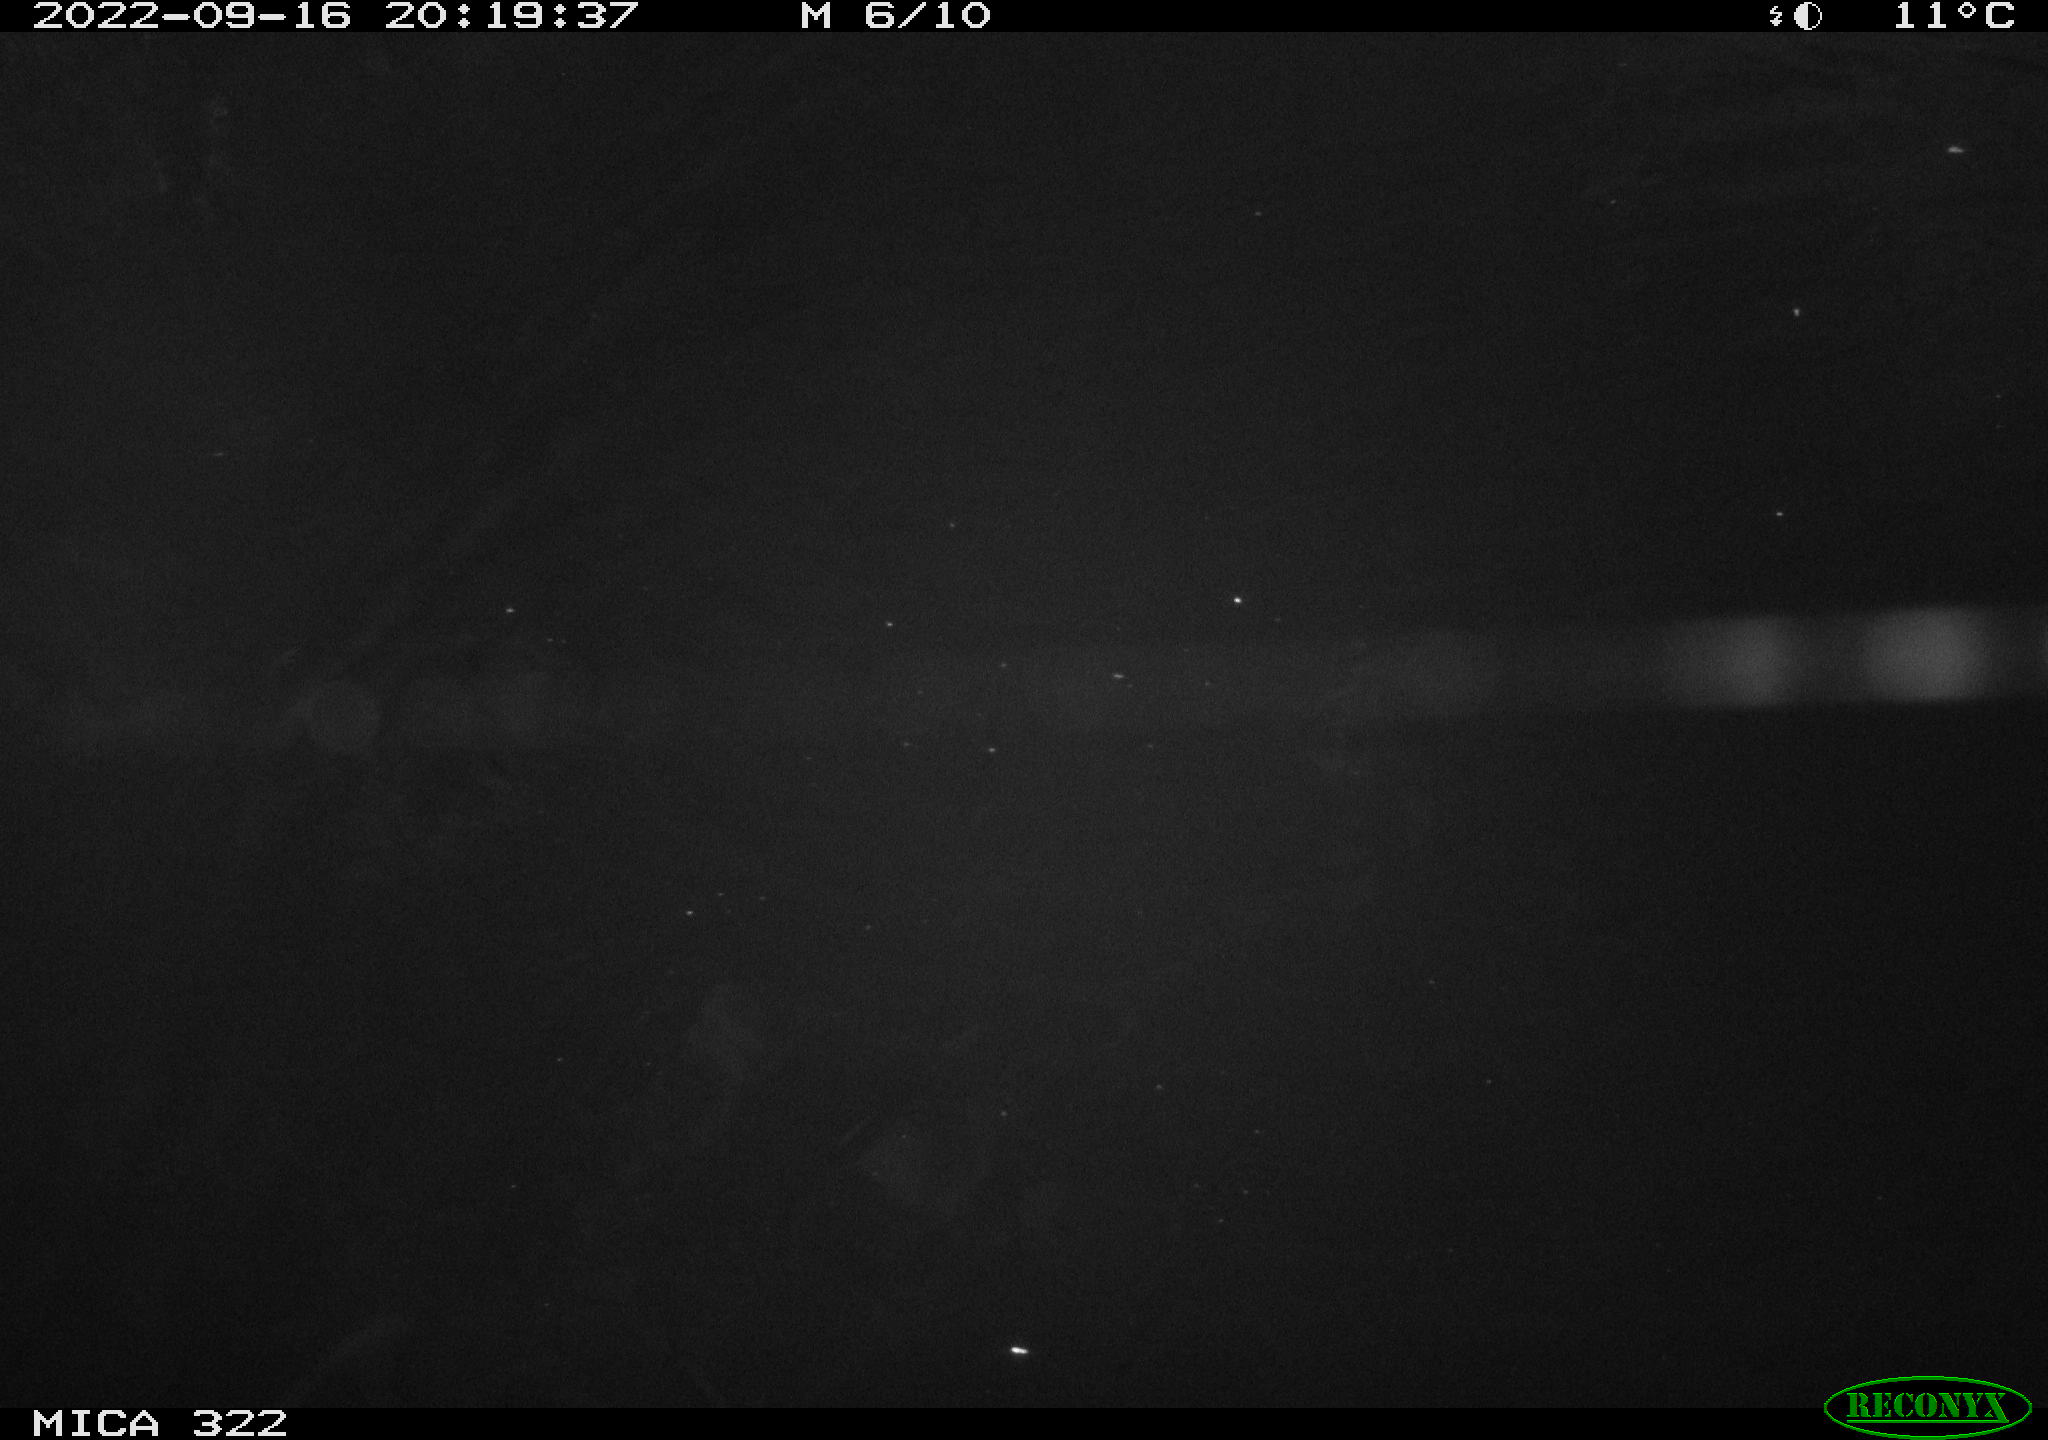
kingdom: Animalia
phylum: Chordata
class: Mammalia
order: Rodentia
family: Muridae
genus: Rattus
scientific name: Rattus norvegicus
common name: Brown rat
